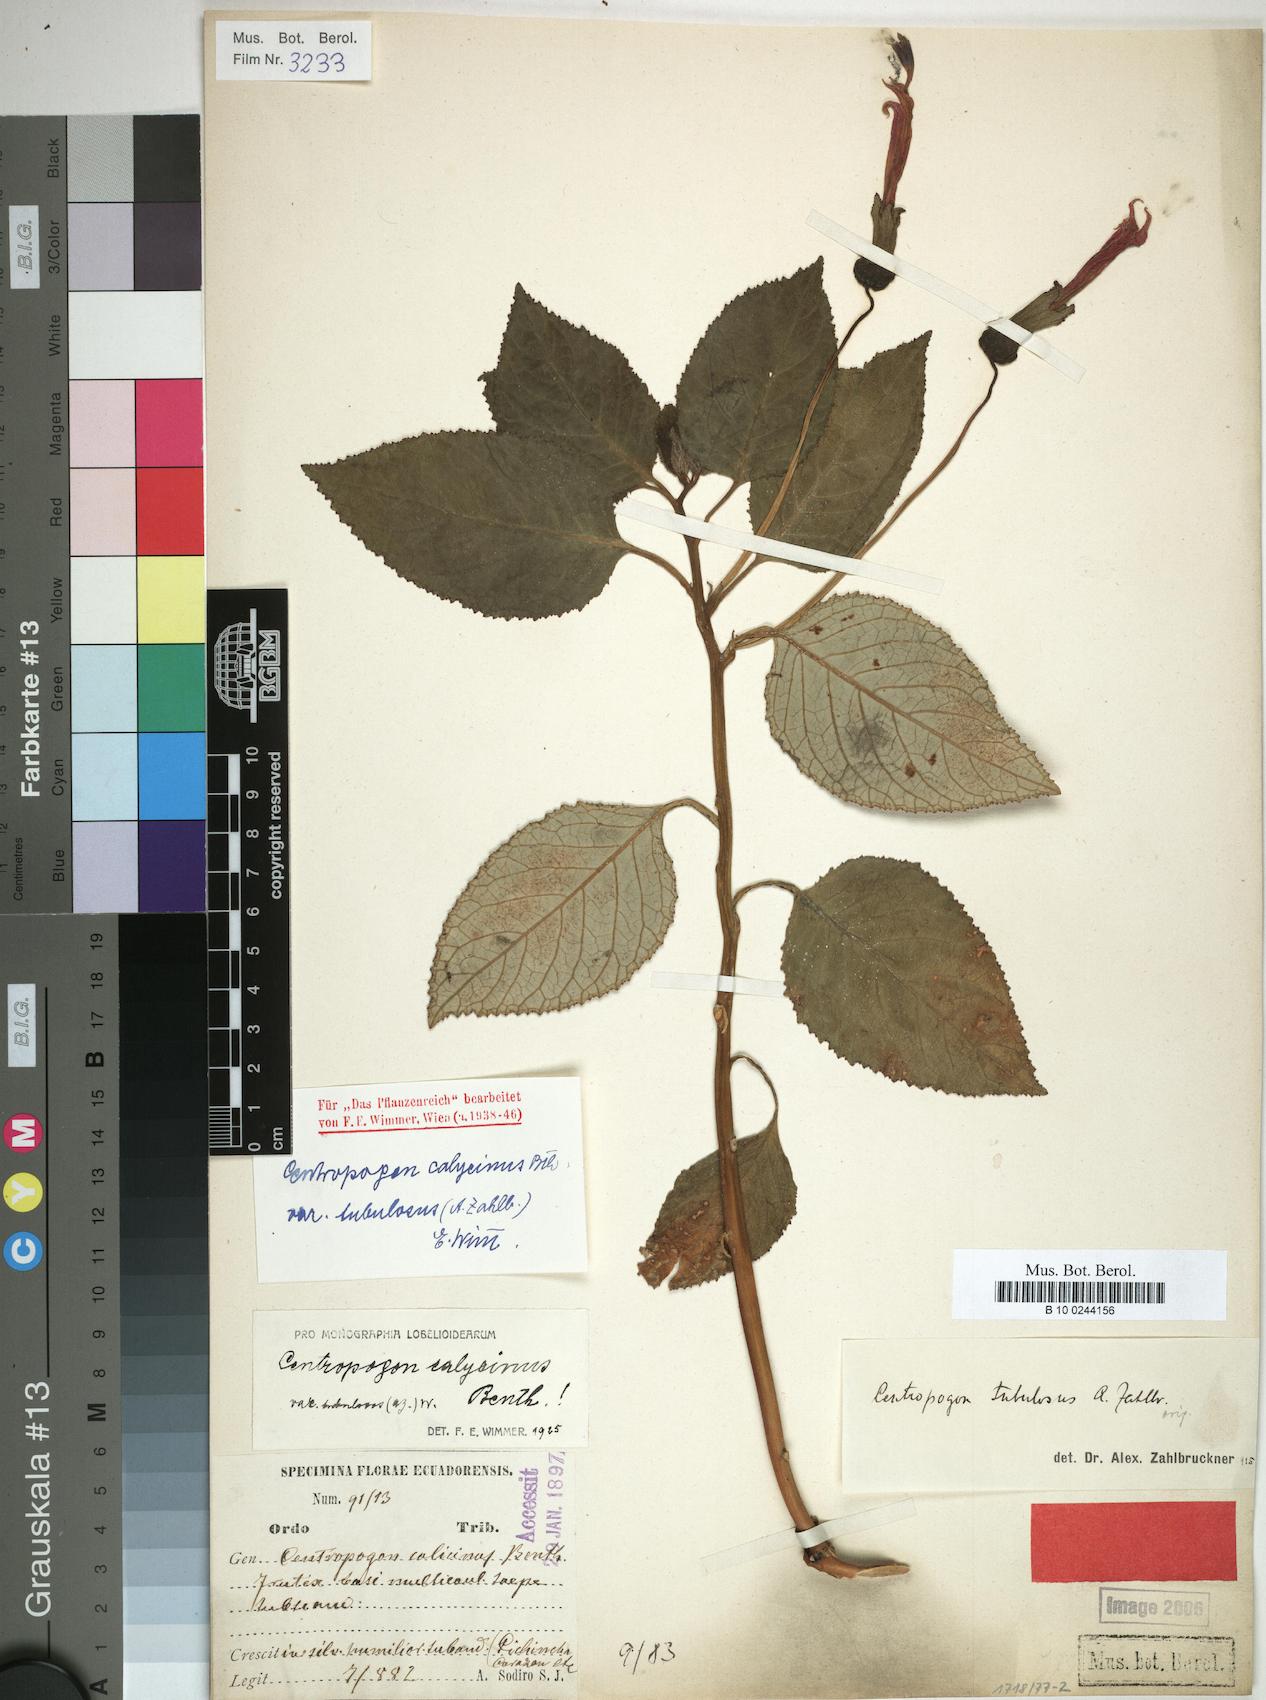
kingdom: Plantae
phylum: Tracheophyta
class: Magnoliopsida
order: Asterales
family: Campanulaceae
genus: Centropogon
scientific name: Centropogon calycinus
